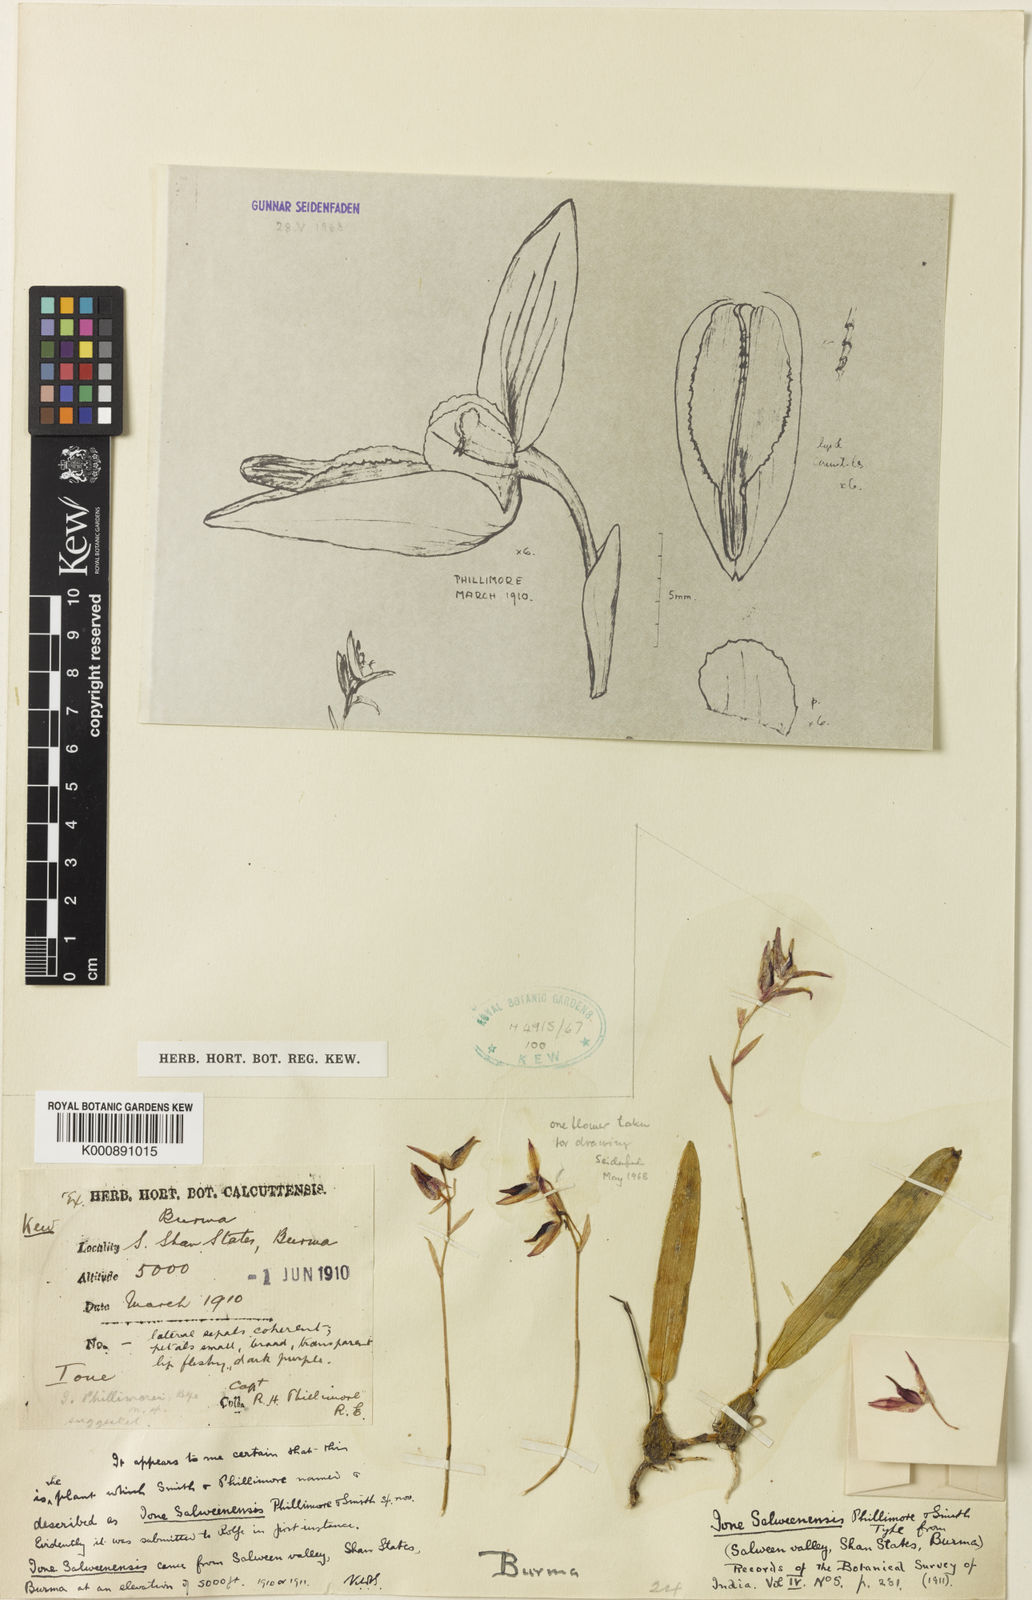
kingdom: Plantae
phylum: Tracheophyta
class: Liliopsida
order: Asparagales
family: Orchidaceae
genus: Bulbophyllum
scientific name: Bulbophyllum rimannii
